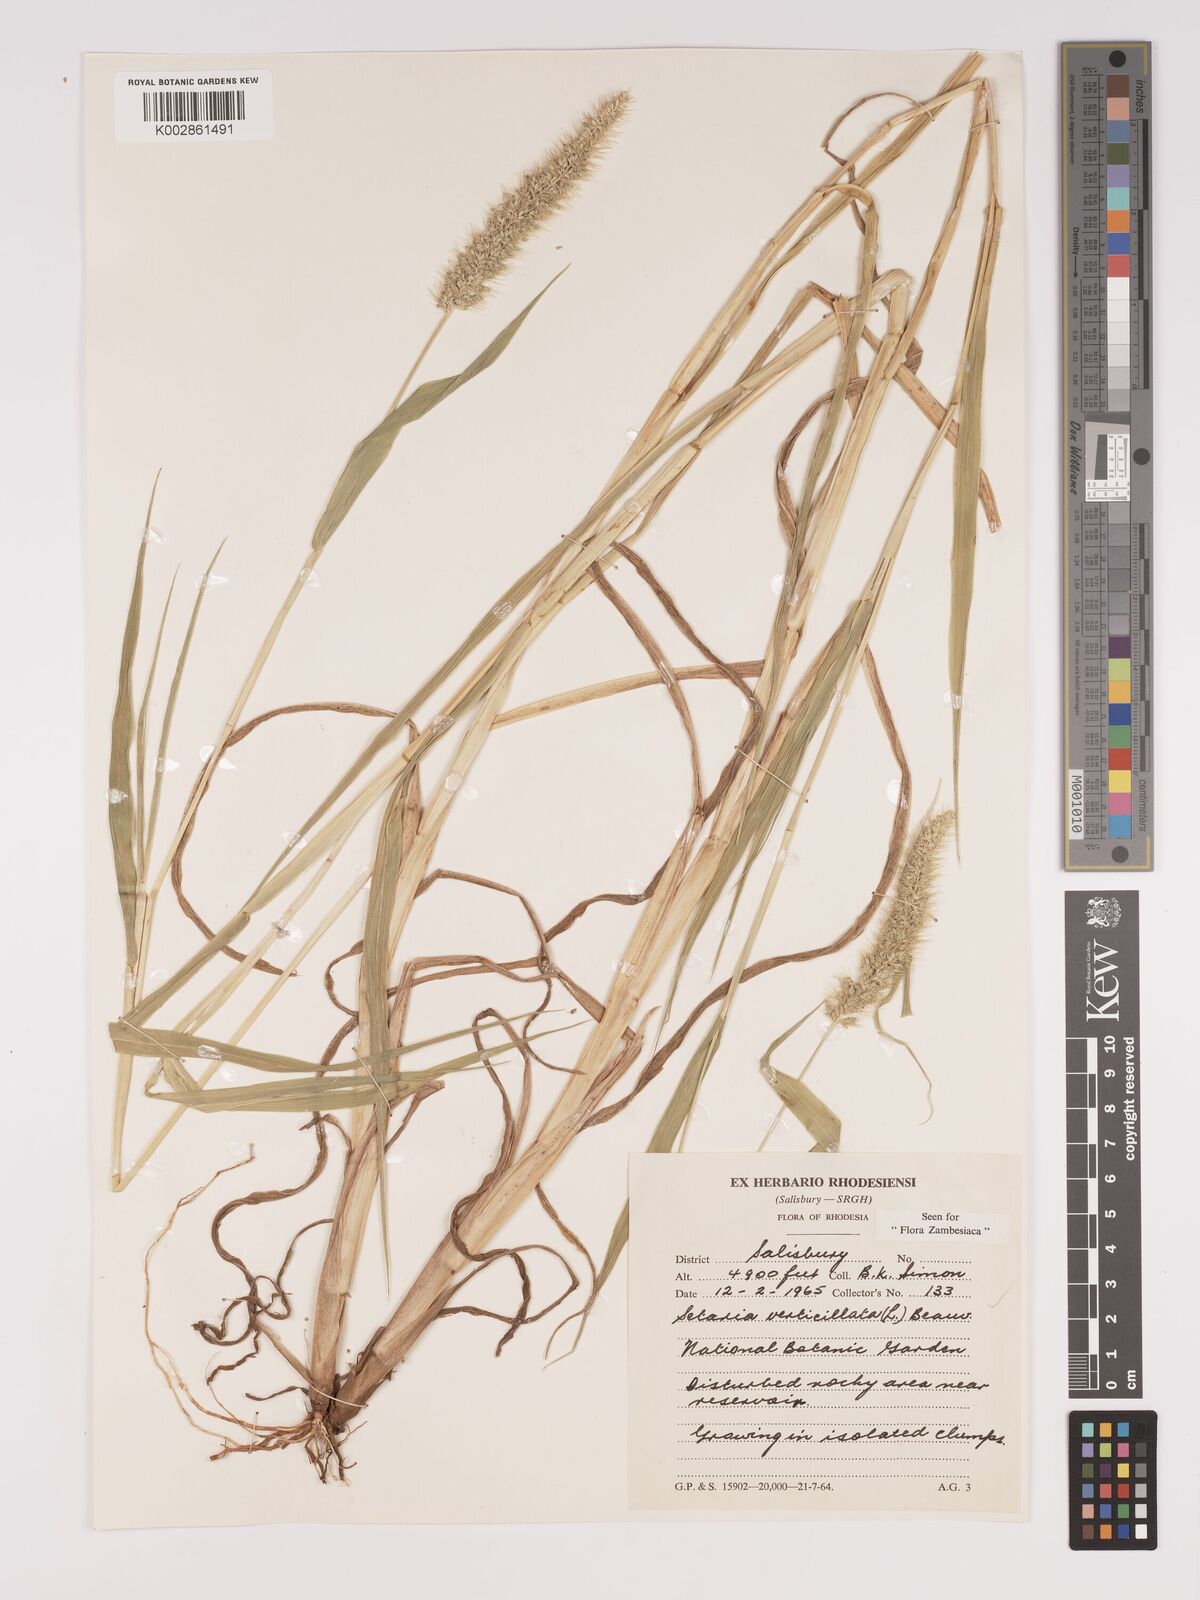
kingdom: Plantae
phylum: Tracheophyta
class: Liliopsida
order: Poales
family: Poaceae
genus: Setaria
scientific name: Setaria verticillata
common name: Hooked bristlegrass
